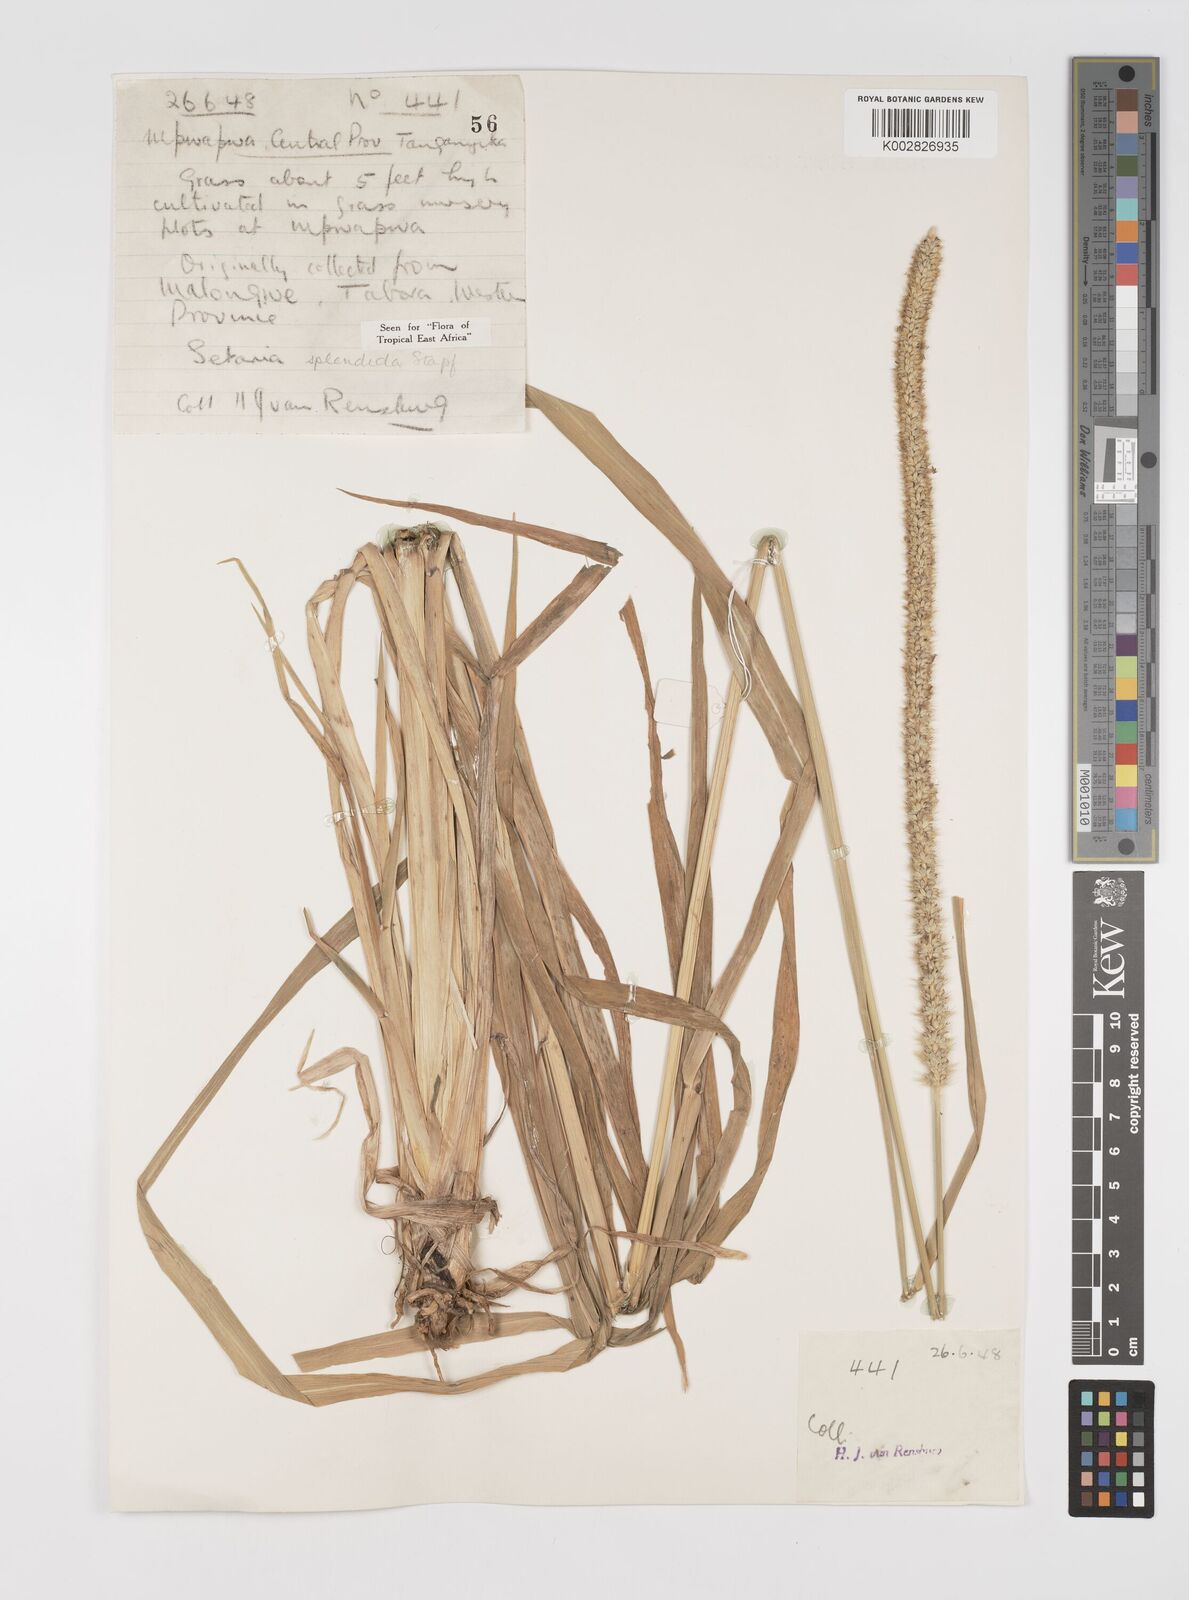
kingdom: Plantae
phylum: Tracheophyta
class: Liliopsida
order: Poales
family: Poaceae
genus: Setaria
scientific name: Setaria sphacelata
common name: African bristlegrass
